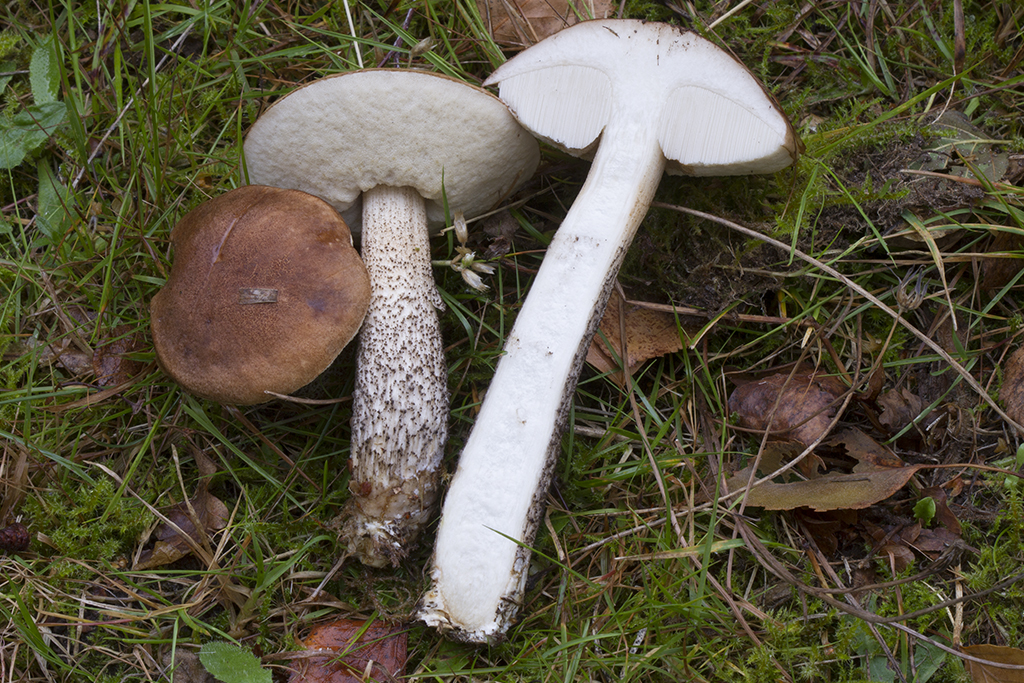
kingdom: Fungi
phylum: Basidiomycota
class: Agaricomycetes
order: Boletales
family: Boletaceae
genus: Leccinum
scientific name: Leccinum scabrum
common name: brun skælrørhat
